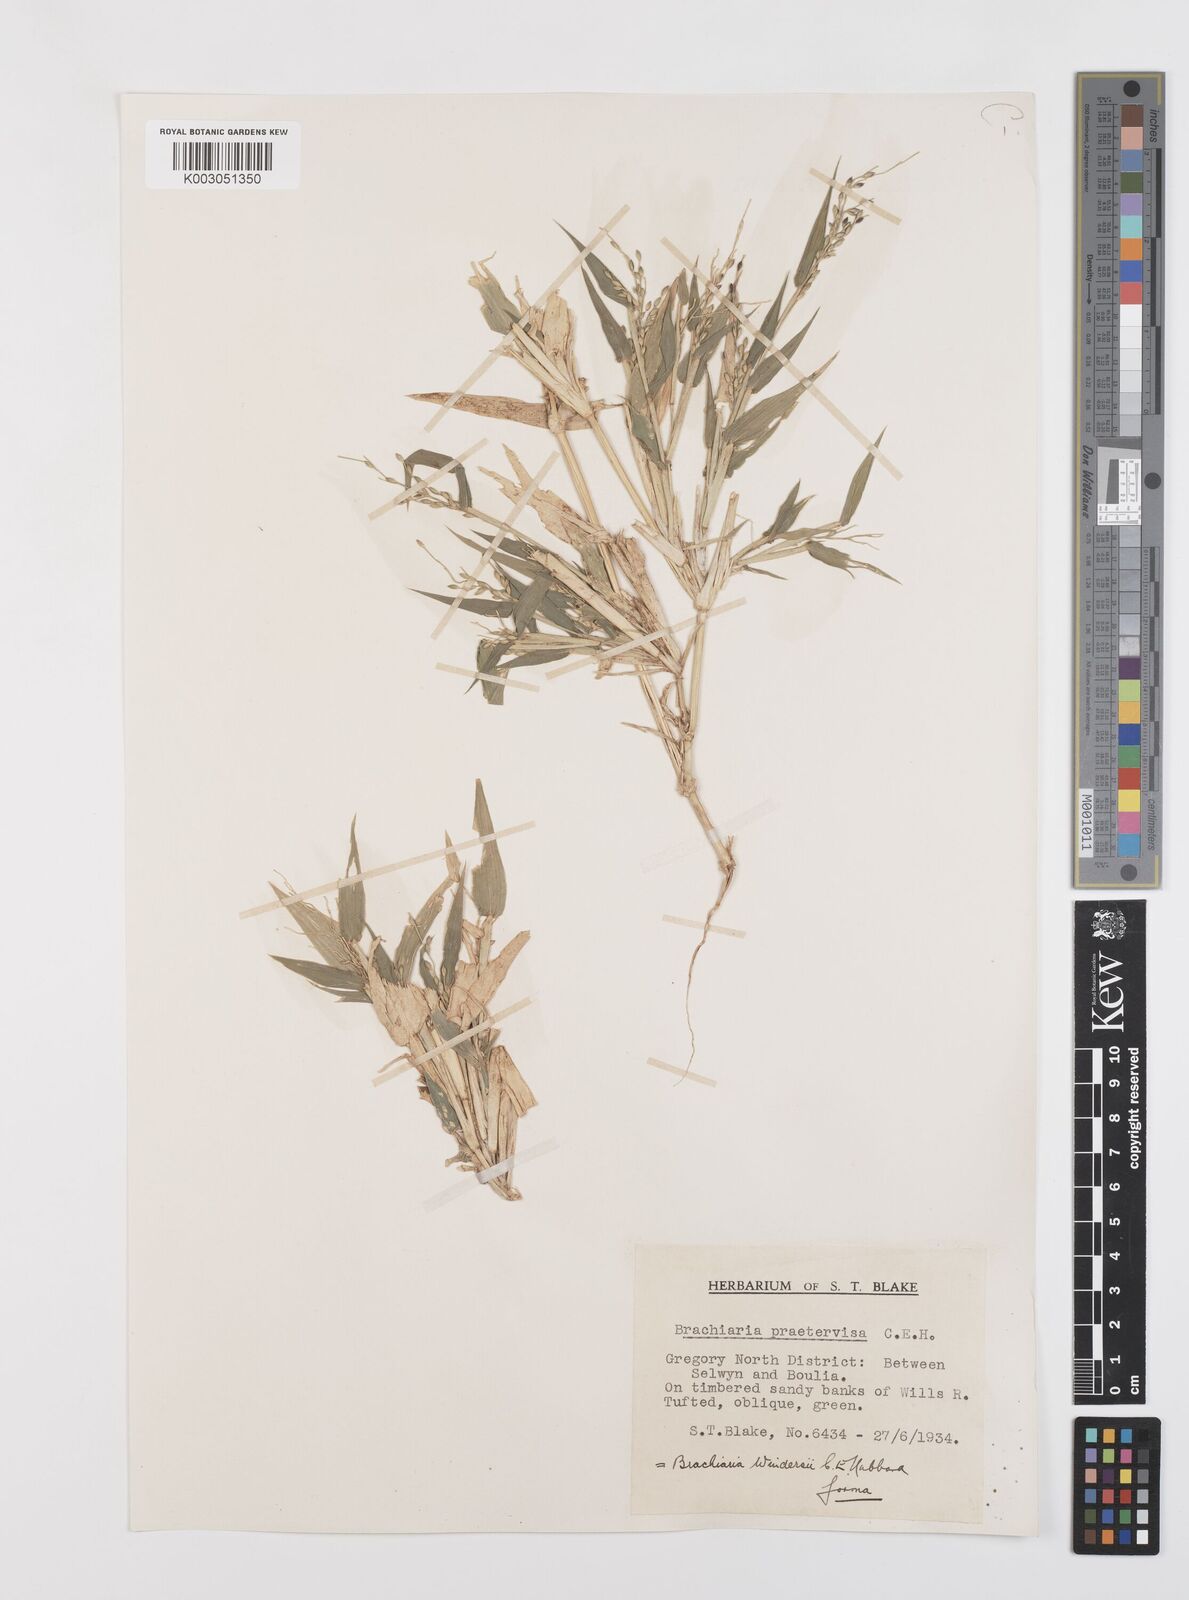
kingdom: Plantae
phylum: Tracheophyta
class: Liliopsida
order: Poales
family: Poaceae
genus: Urochloa
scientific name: Urochloa whiteana
